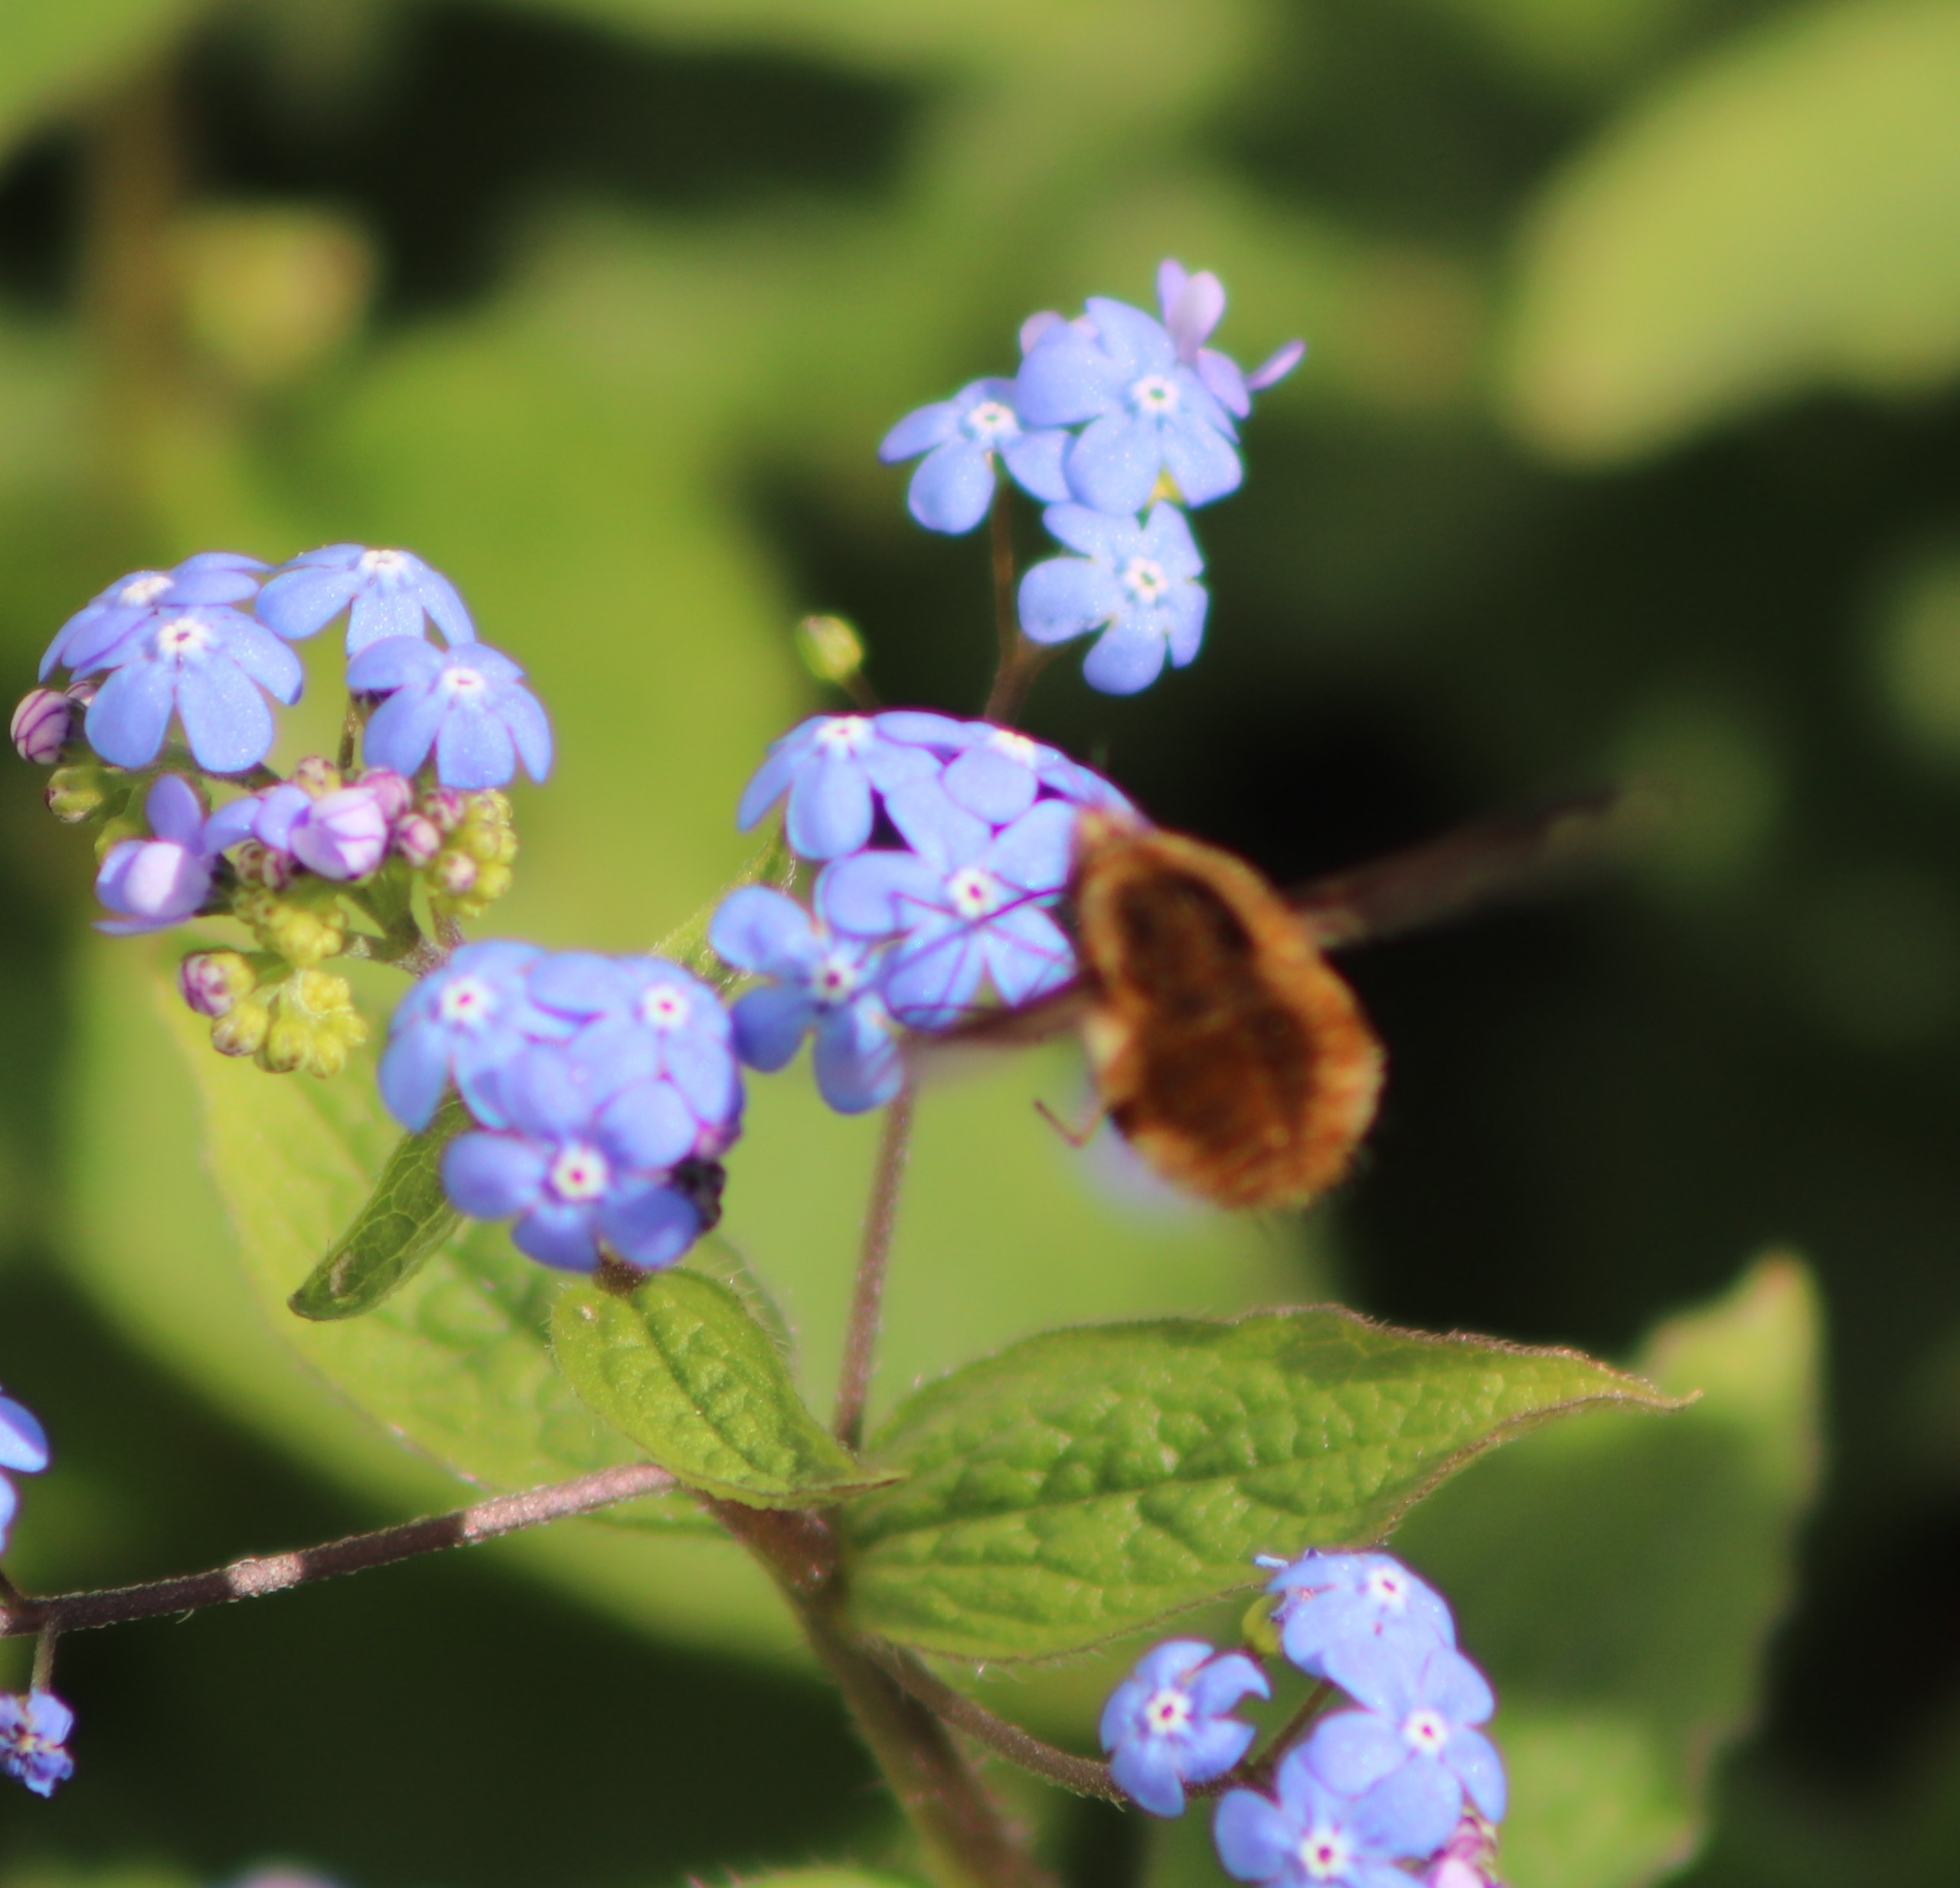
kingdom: Animalia
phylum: Arthropoda
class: Insecta
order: Diptera
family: Bombyliidae
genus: Bombylius
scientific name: Bombylius major
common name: Stor humleflue
